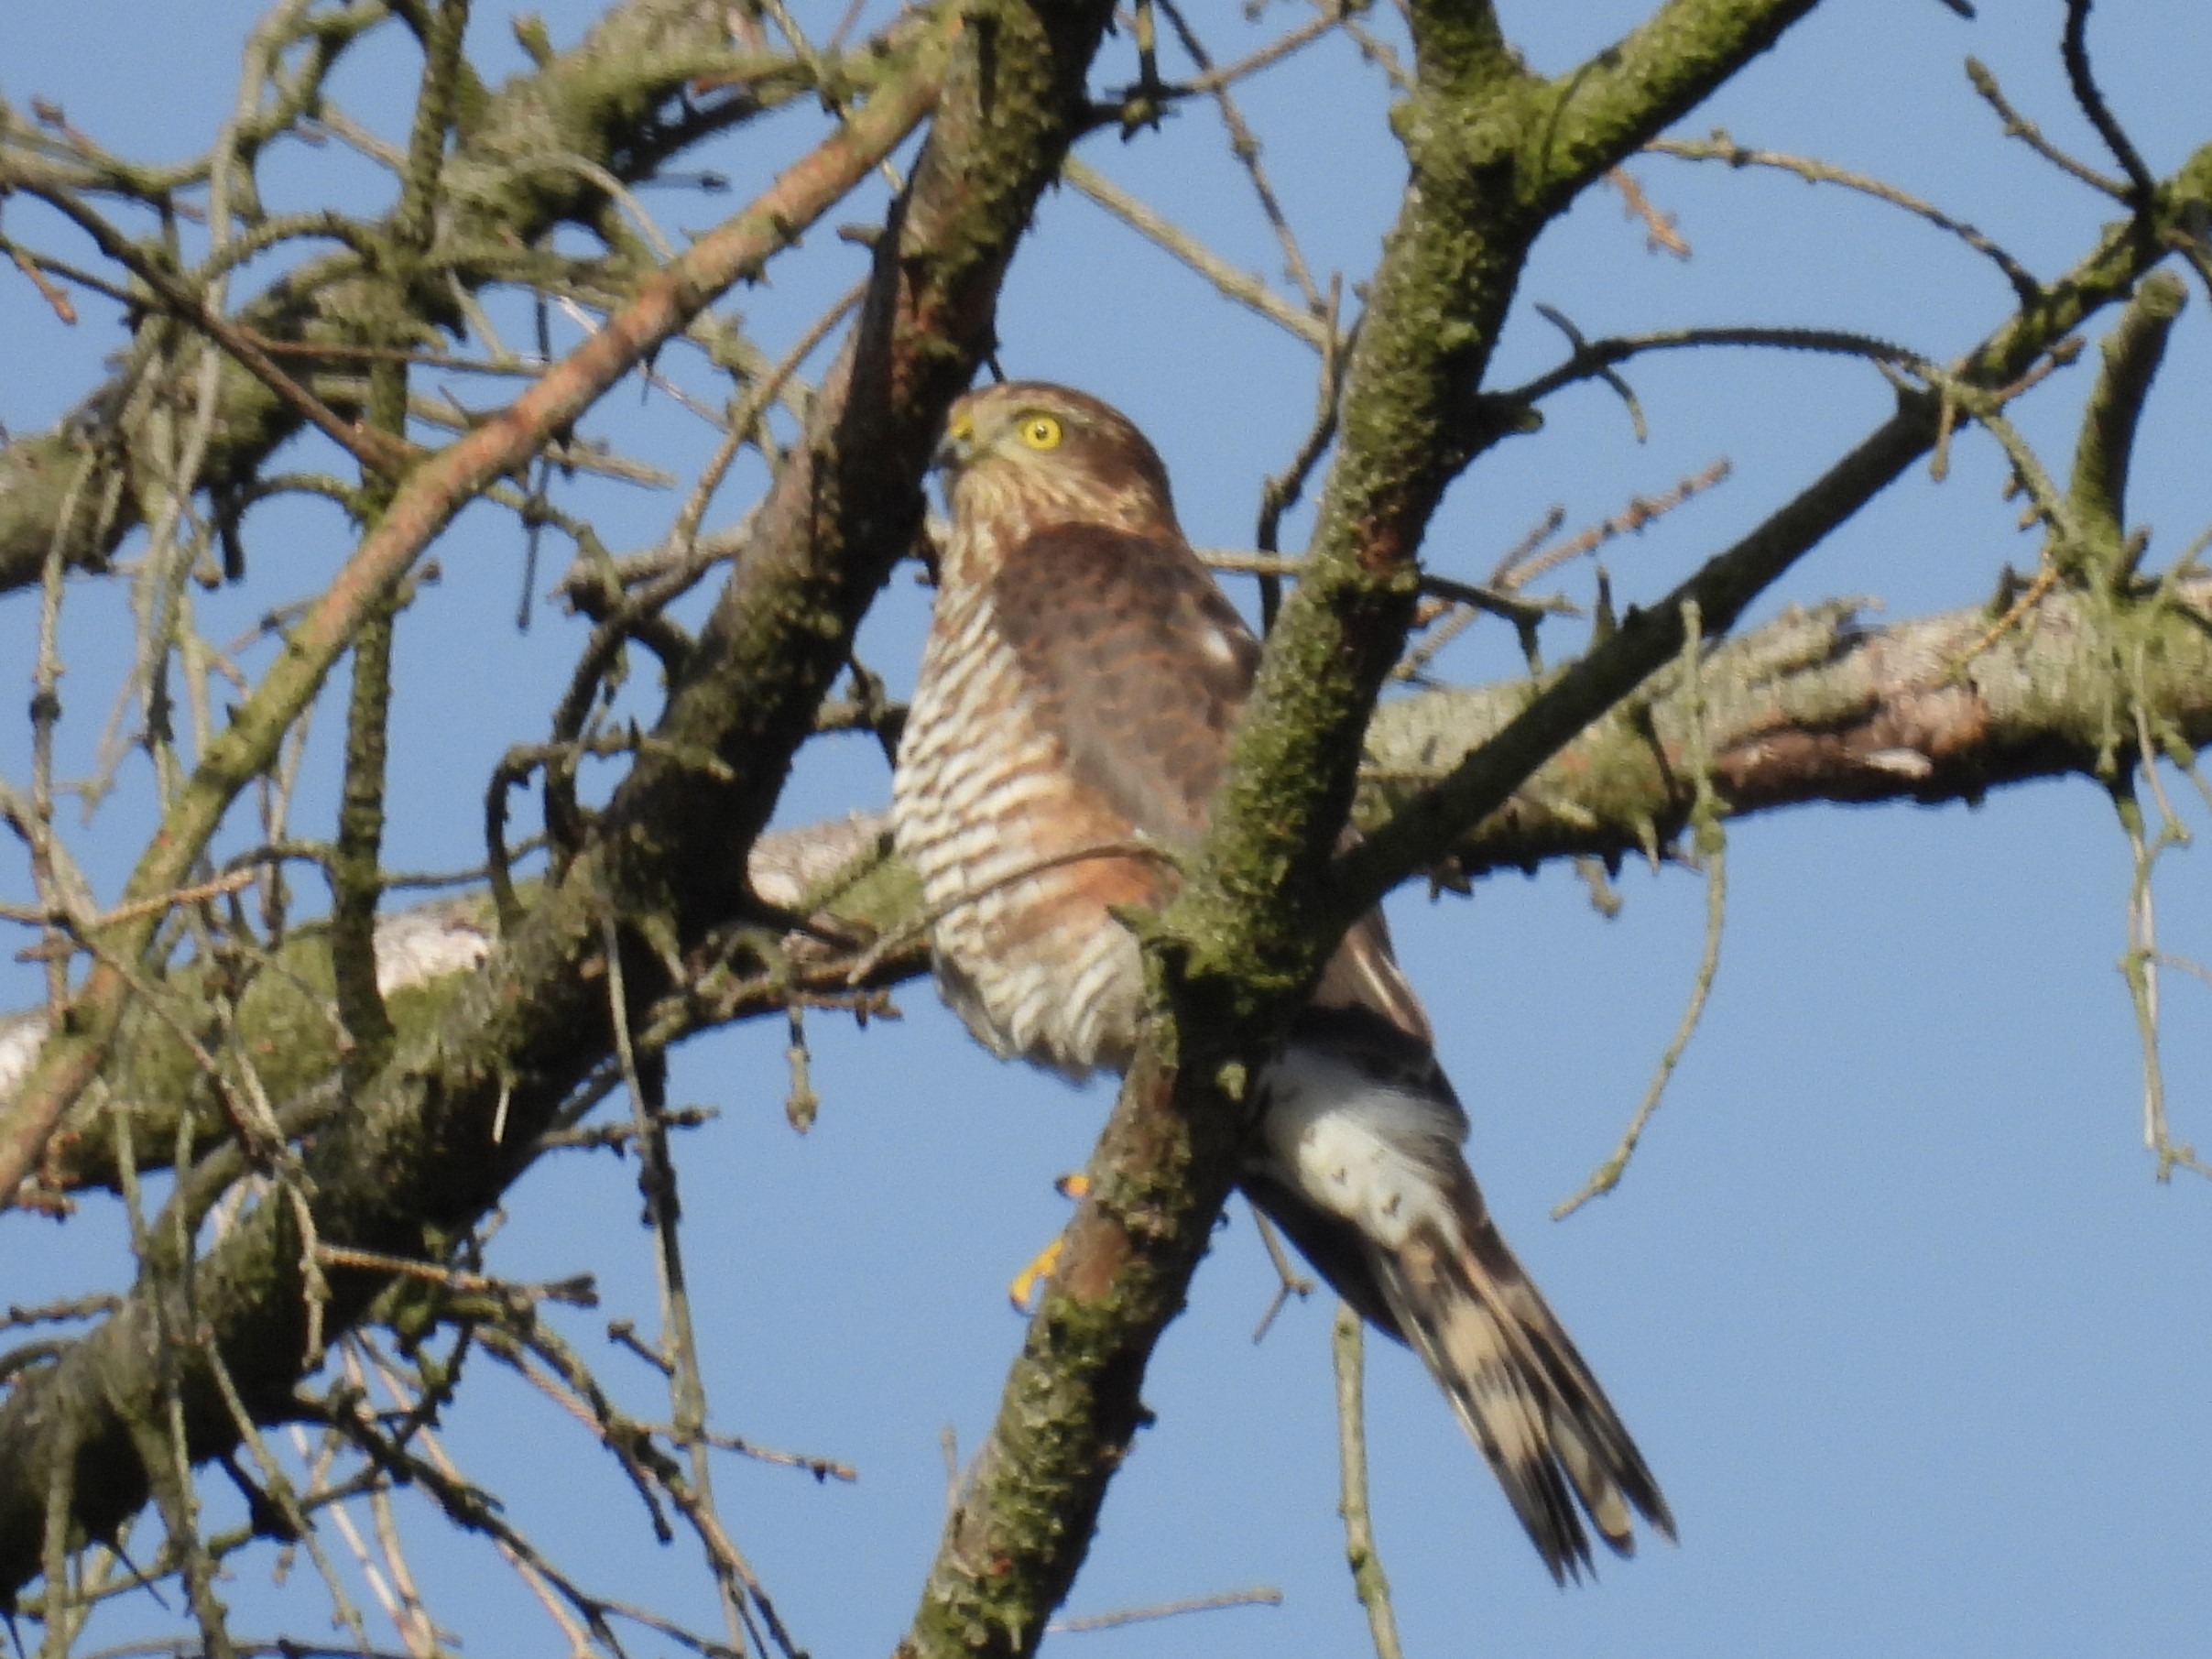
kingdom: Animalia
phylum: Chordata
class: Aves
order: Accipitriformes
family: Accipitridae
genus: Accipiter
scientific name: Accipiter nisus
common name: Spurvehøg
